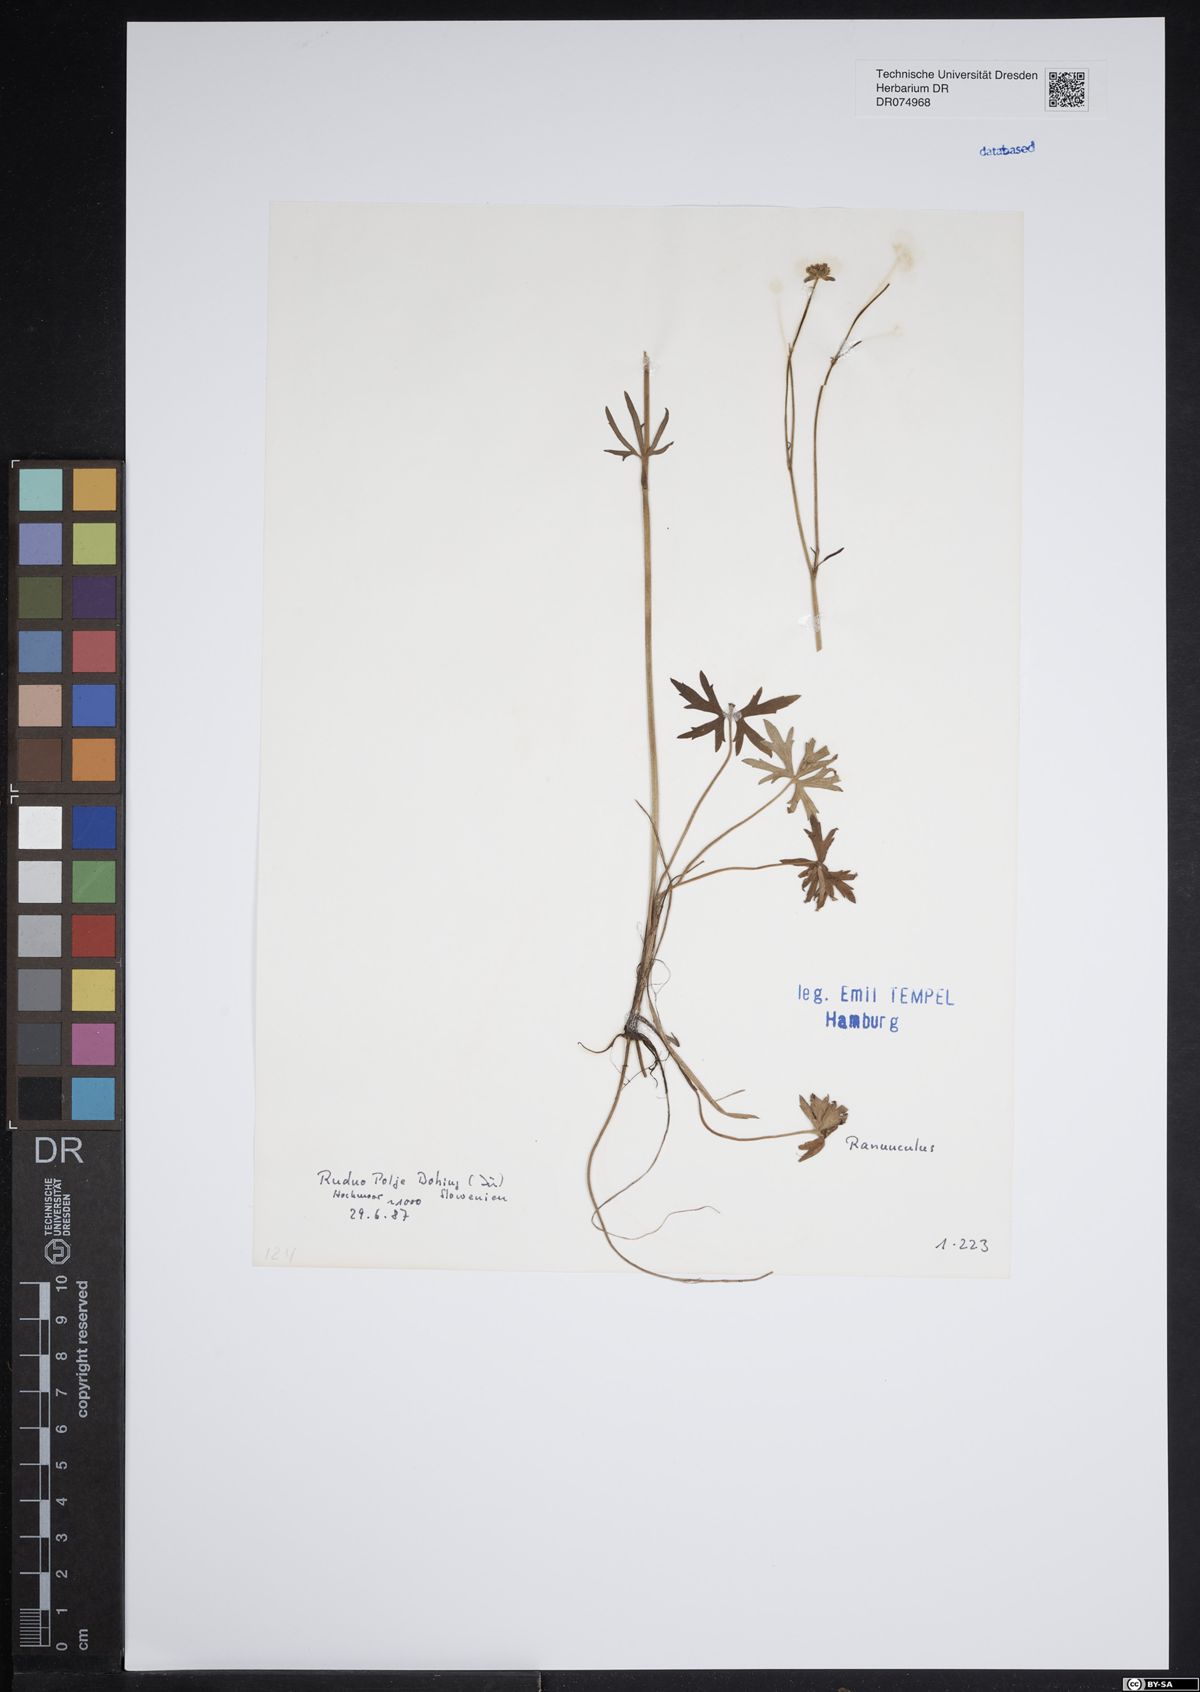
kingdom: Plantae
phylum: Tracheophyta
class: Magnoliopsida
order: Ranunculales
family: Ranunculaceae
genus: Ranunculus
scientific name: Ranunculus
